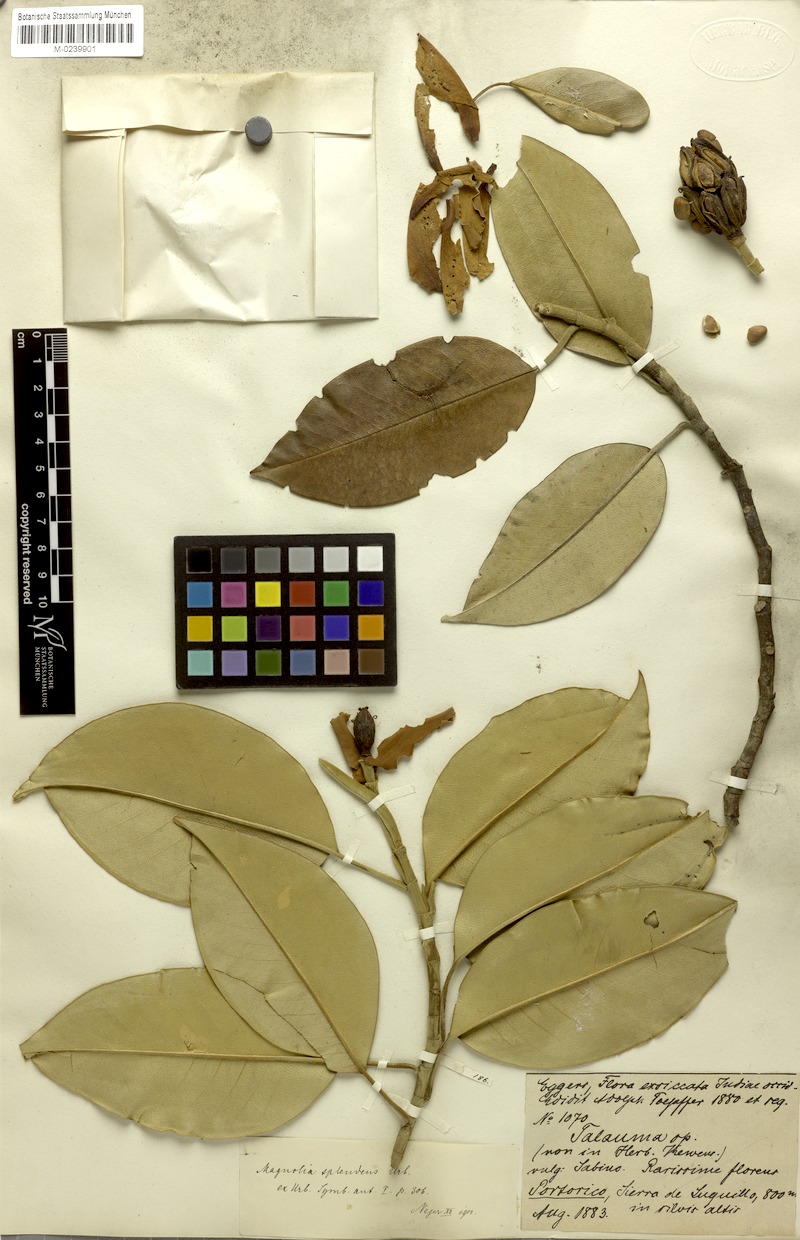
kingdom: Plantae
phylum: Tracheophyta
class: Magnoliopsida
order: Magnoliales
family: Magnoliaceae
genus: Magnolia
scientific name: Magnolia splendens
